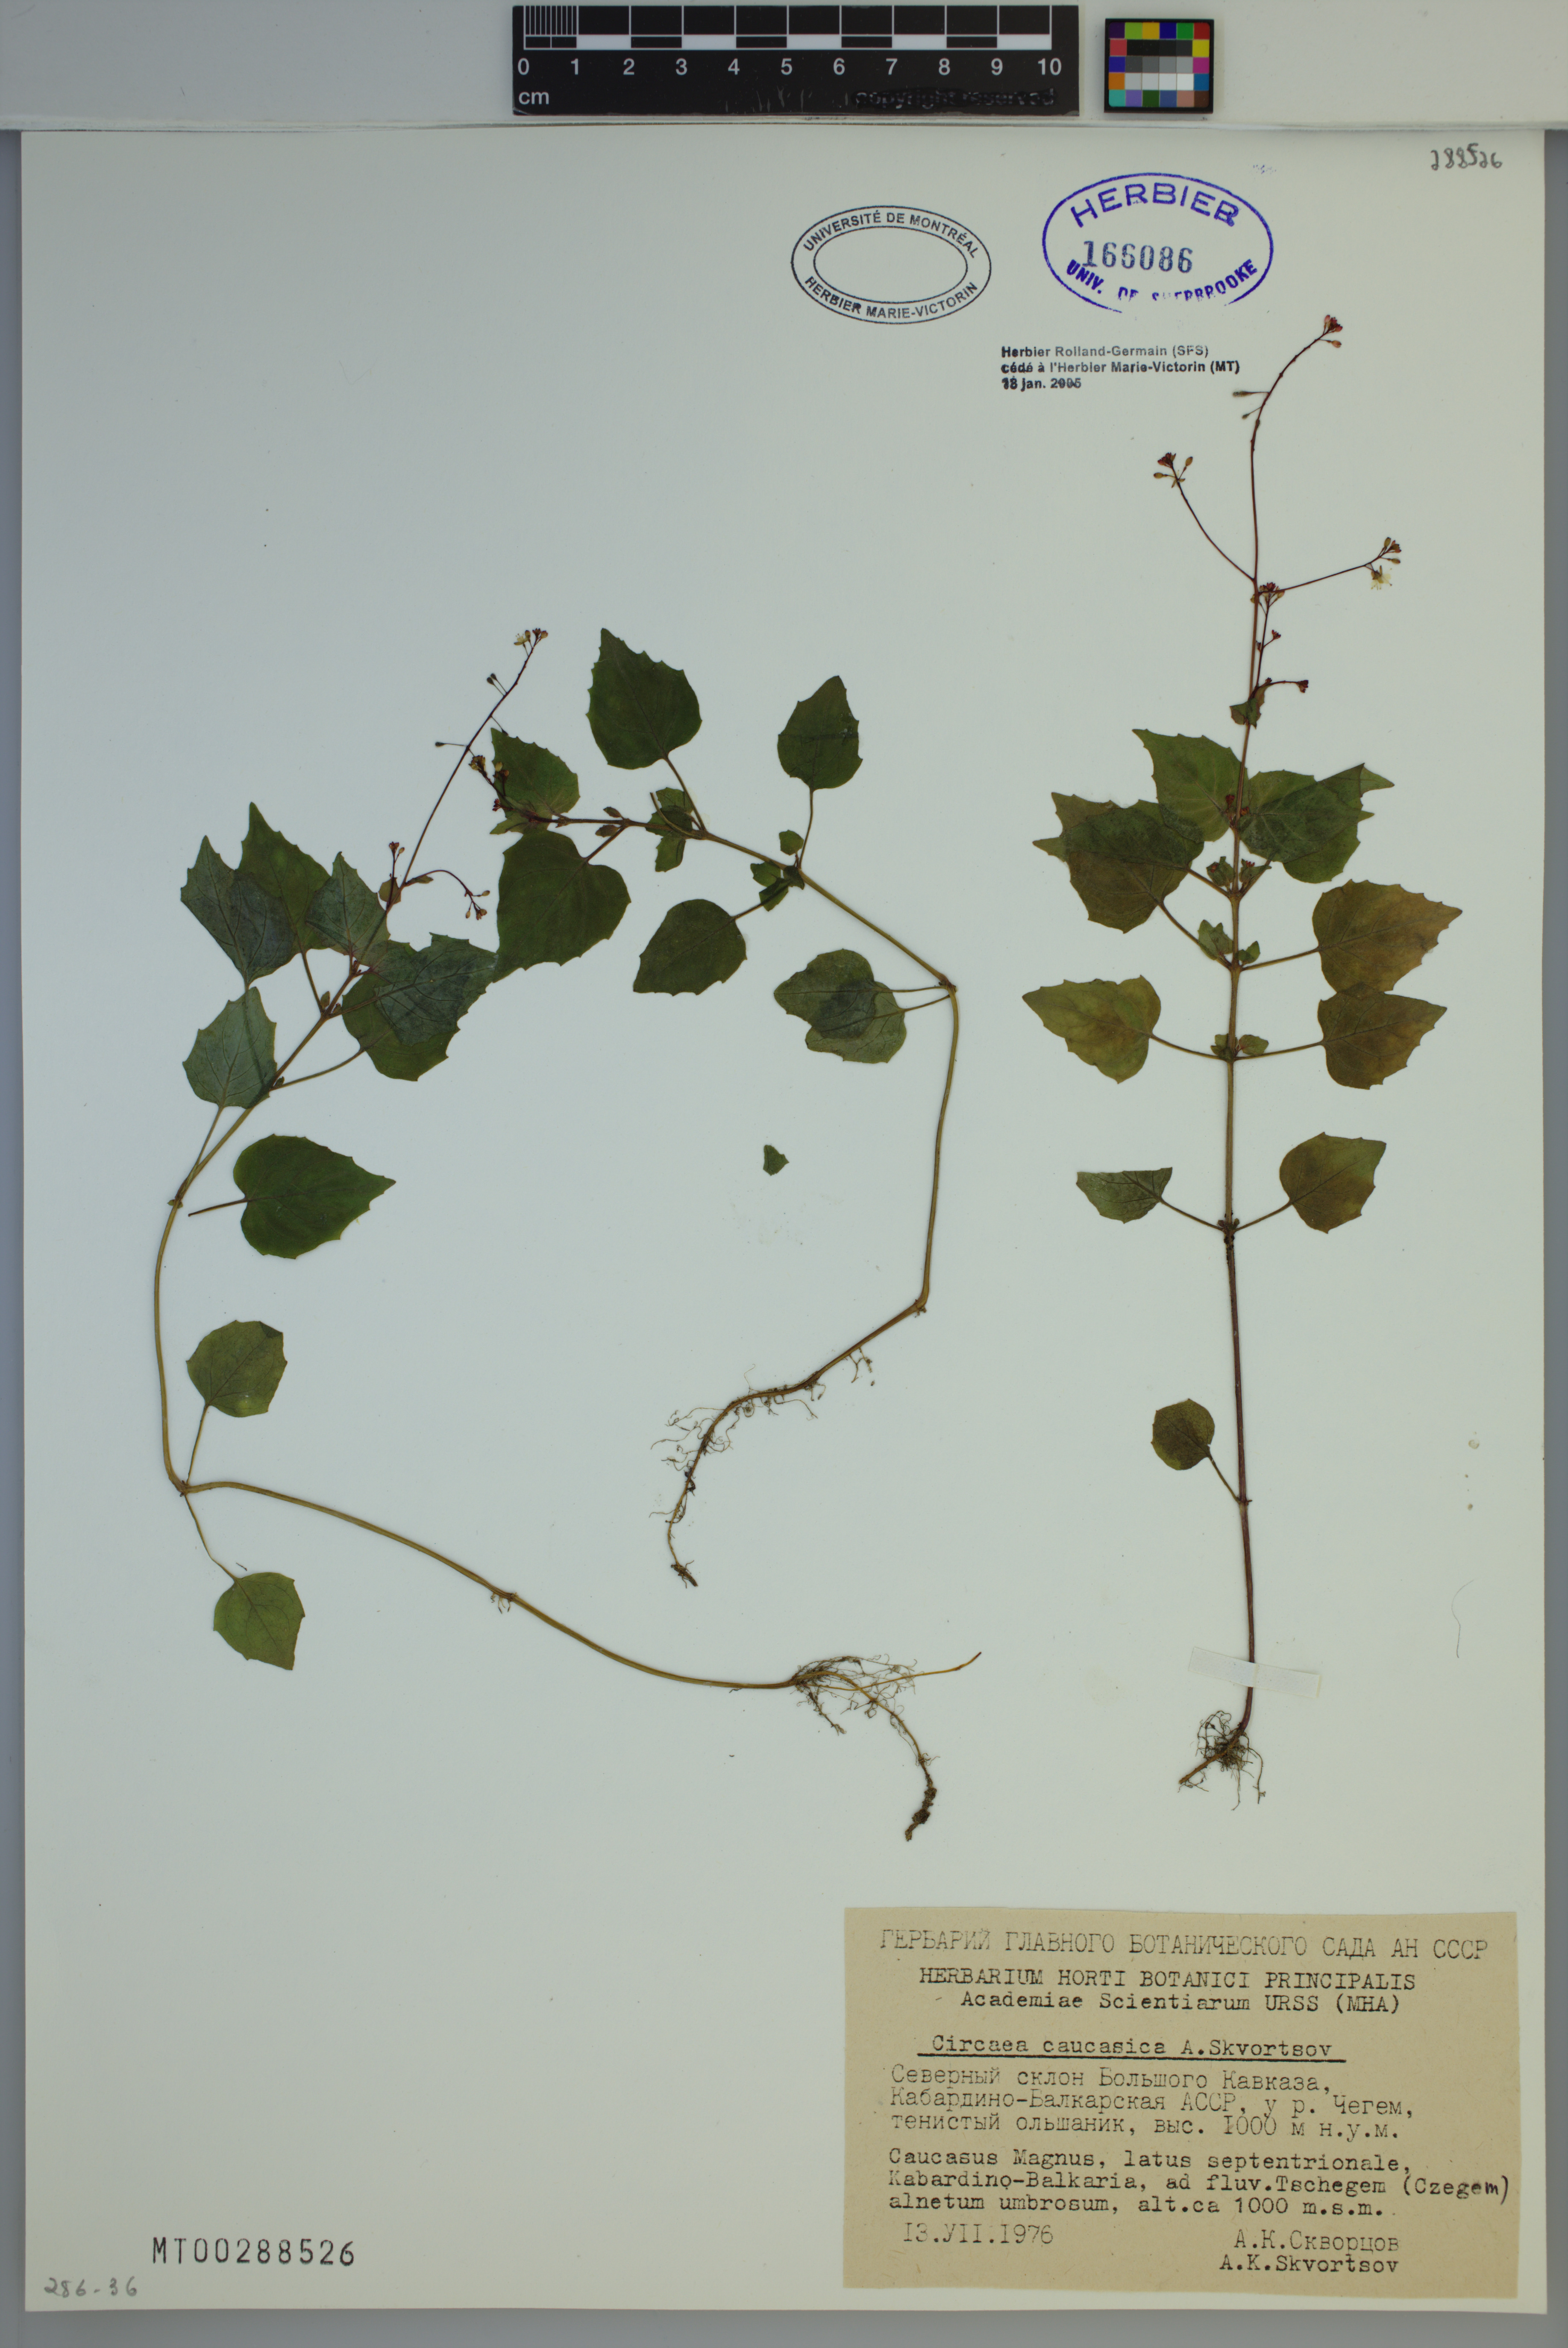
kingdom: Plantae
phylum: Tracheophyta
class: Magnoliopsida
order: Myrtales
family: Onagraceae
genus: Circaea
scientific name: Circaea alpina
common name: Alpine enchanter's-nightshade
